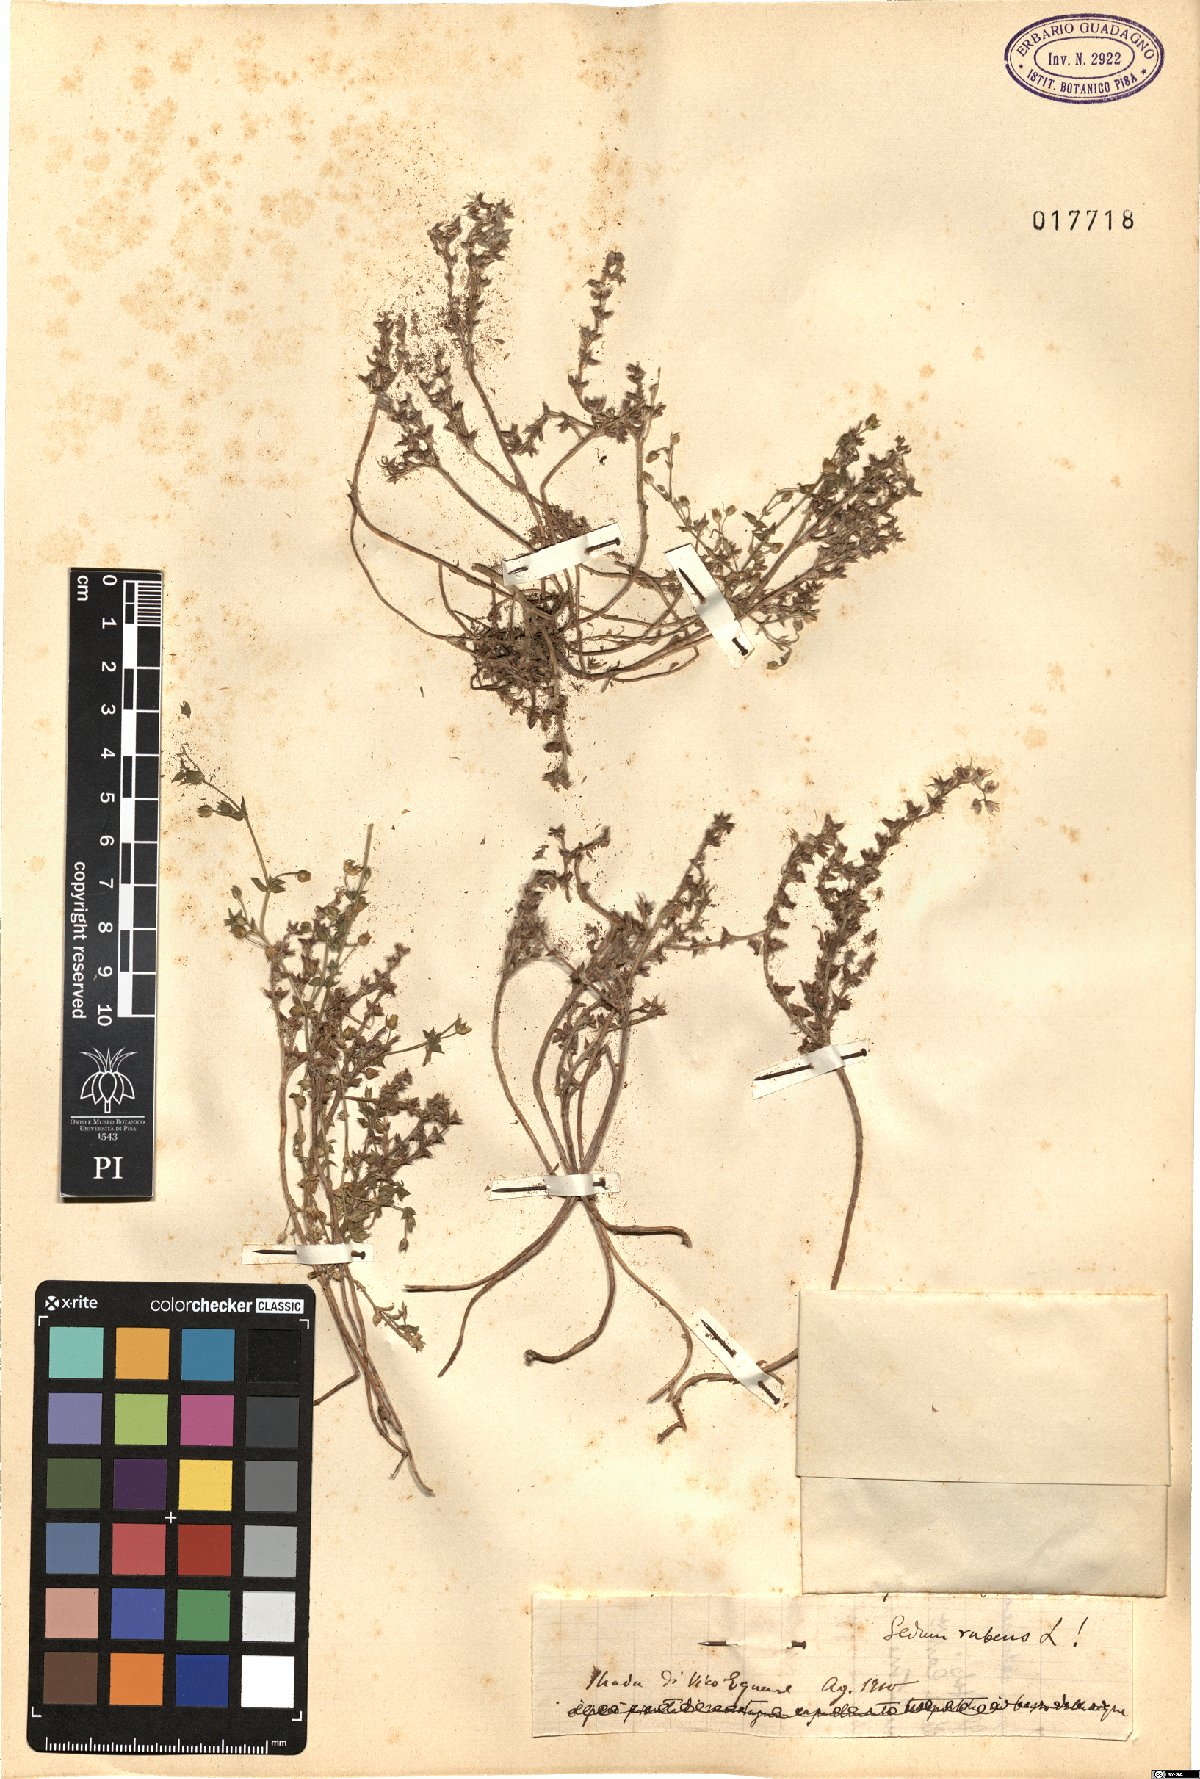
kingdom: Plantae
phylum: Tracheophyta
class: Magnoliopsida
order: Saxifragales
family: Crassulaceae
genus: Sedum
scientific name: Sedum rubens
